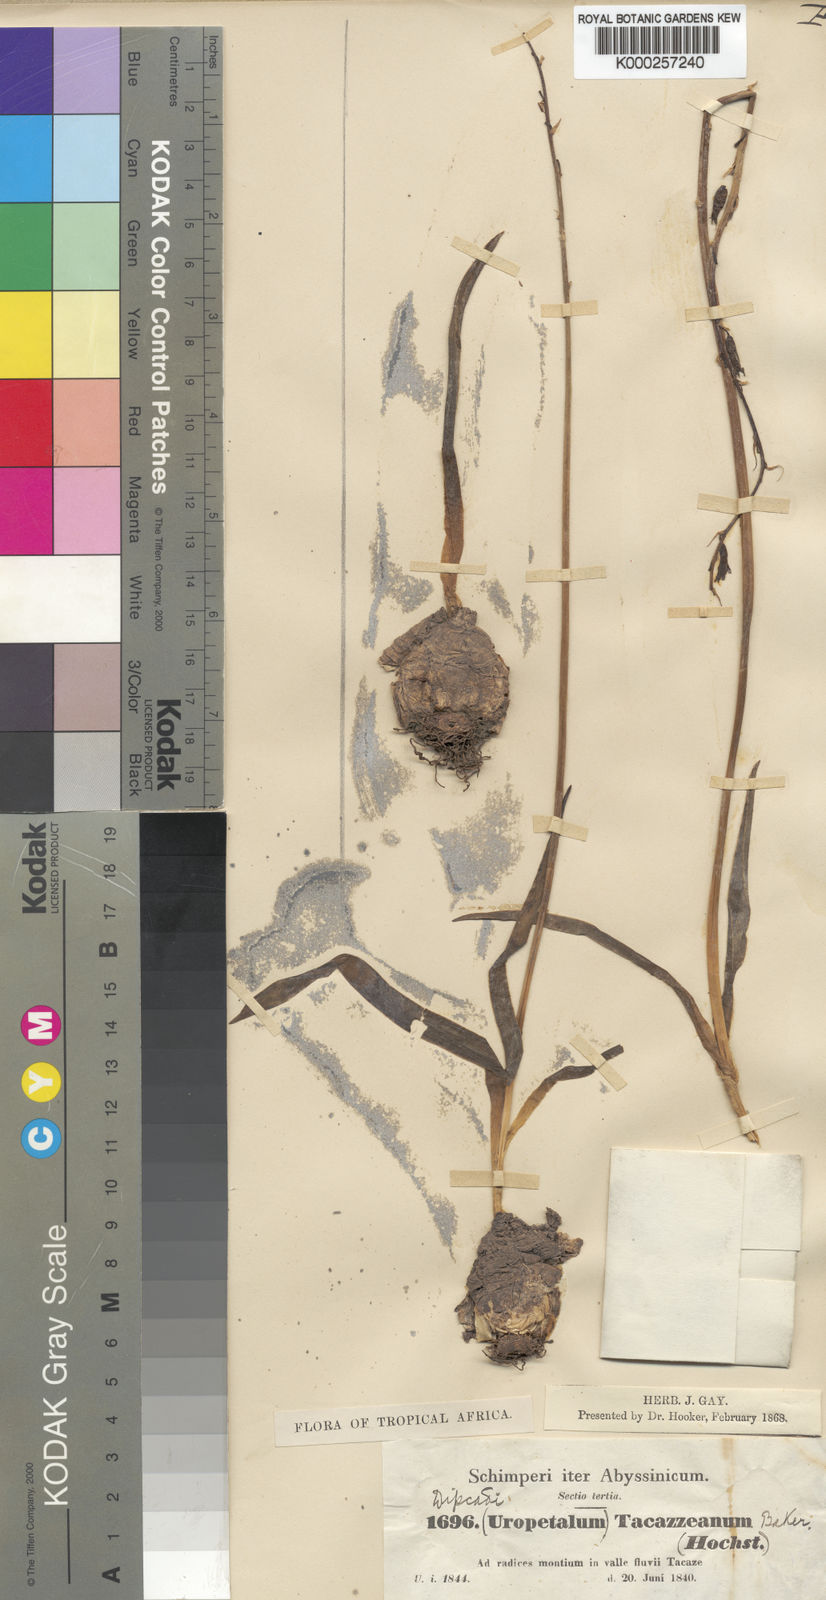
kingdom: Plantae
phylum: Tracheophyta
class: Liliopsida
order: Asparagales
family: Asparagaceae
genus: Dipcadi
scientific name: Dipcadi viride
